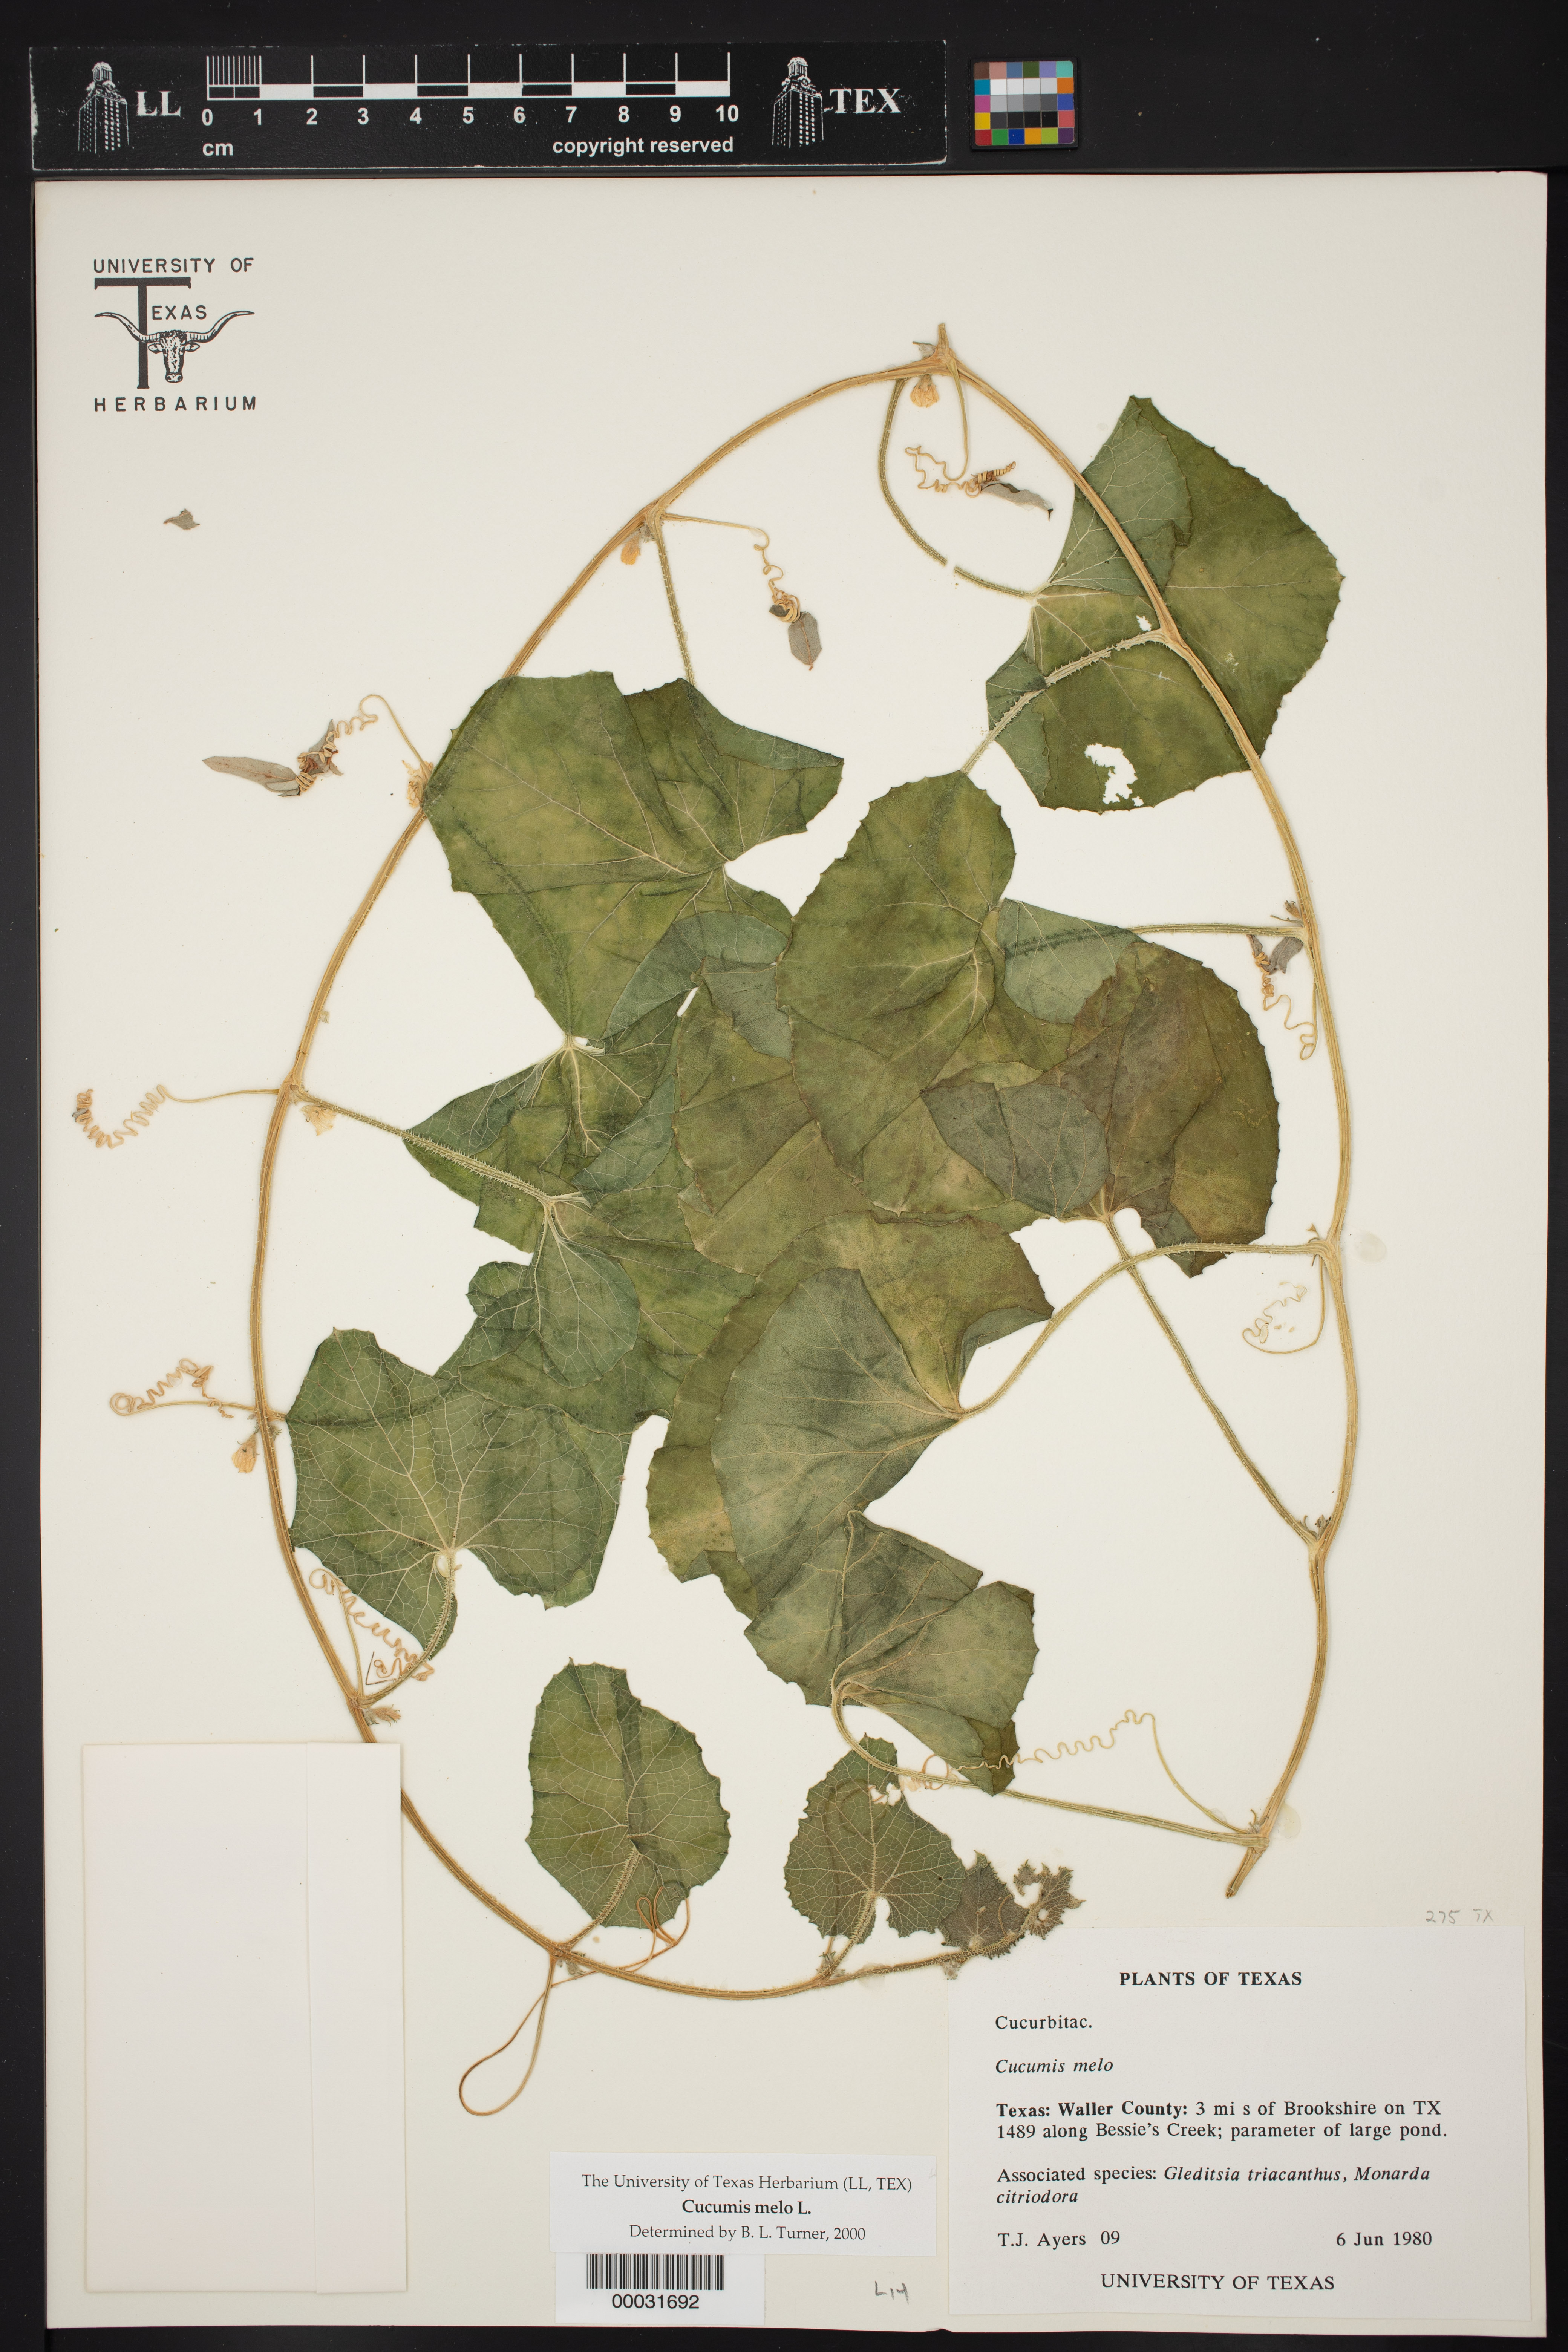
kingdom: Plantae
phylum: Tracheophyta
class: Magnoliopsida
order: Cucurbitales
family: Cucurbitaceae
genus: Cucumis
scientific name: Cucumis melo
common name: Melon
